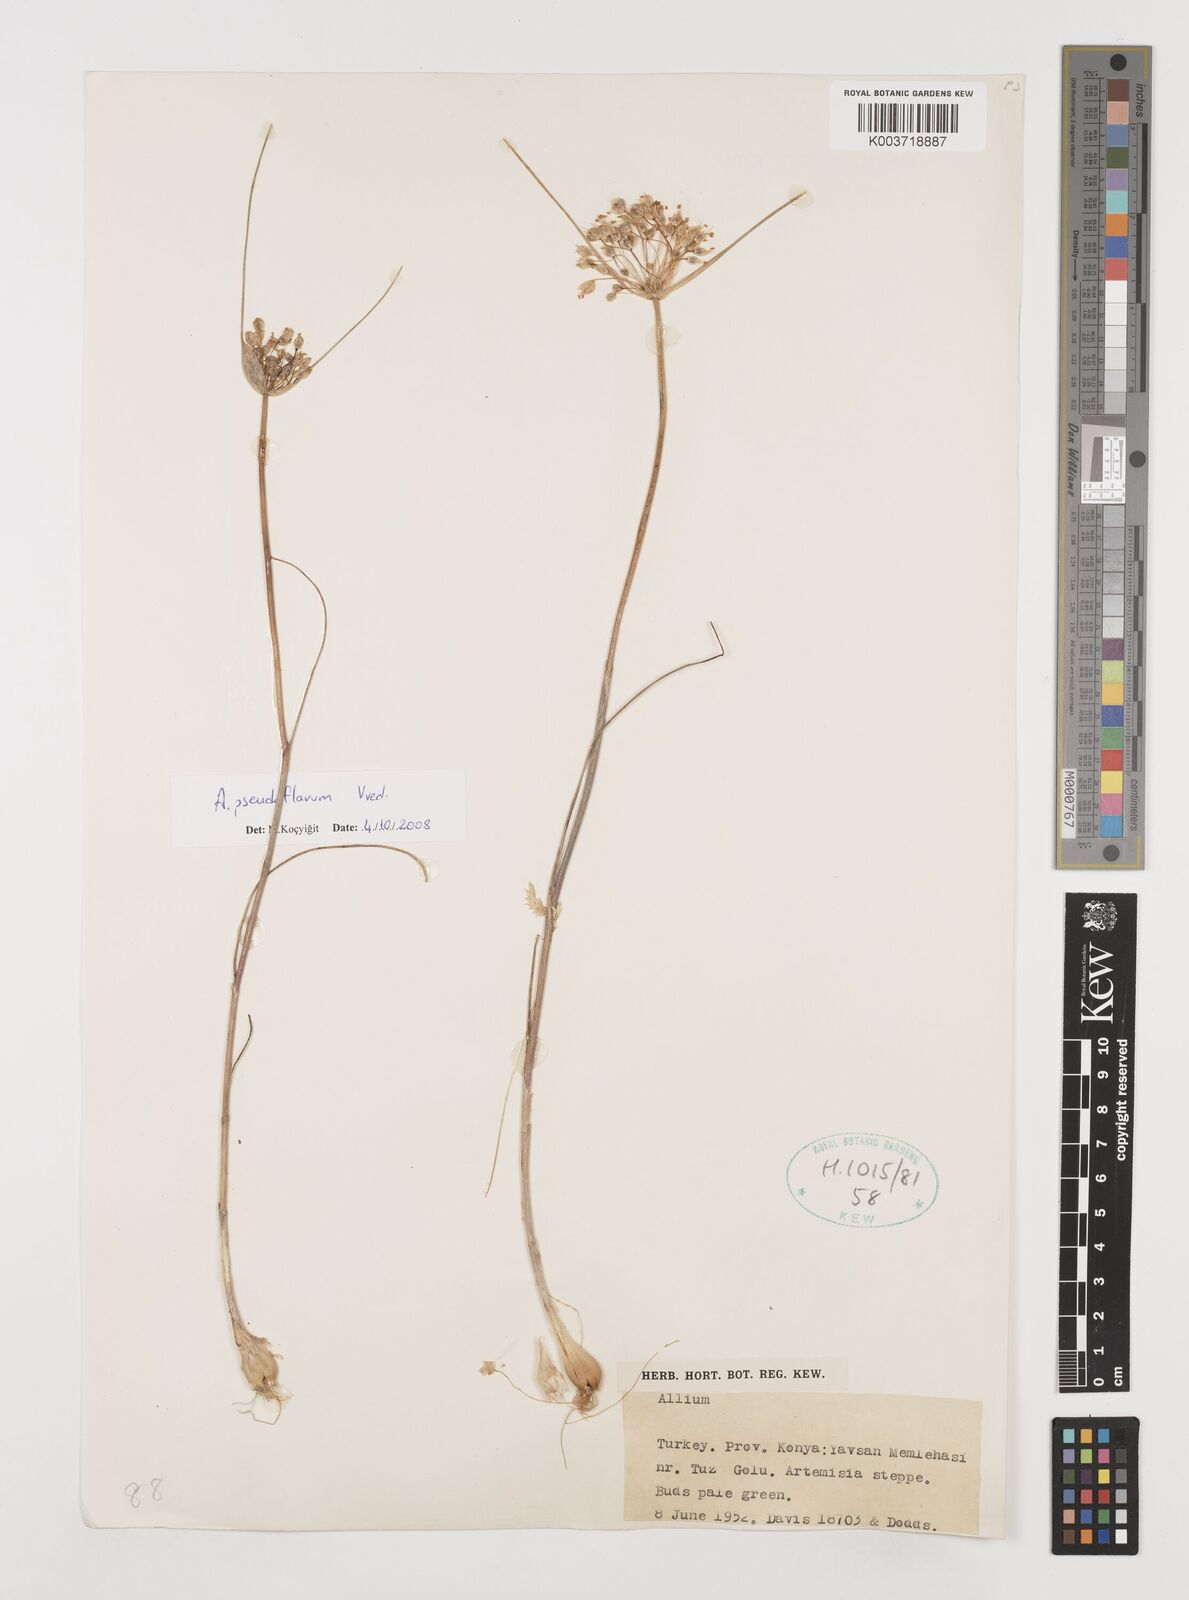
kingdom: Plantae
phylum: Tracheophyta
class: Liliopsida
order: Asparagales
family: Amaryllidaceae
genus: Allium
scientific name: Allium stamineum
